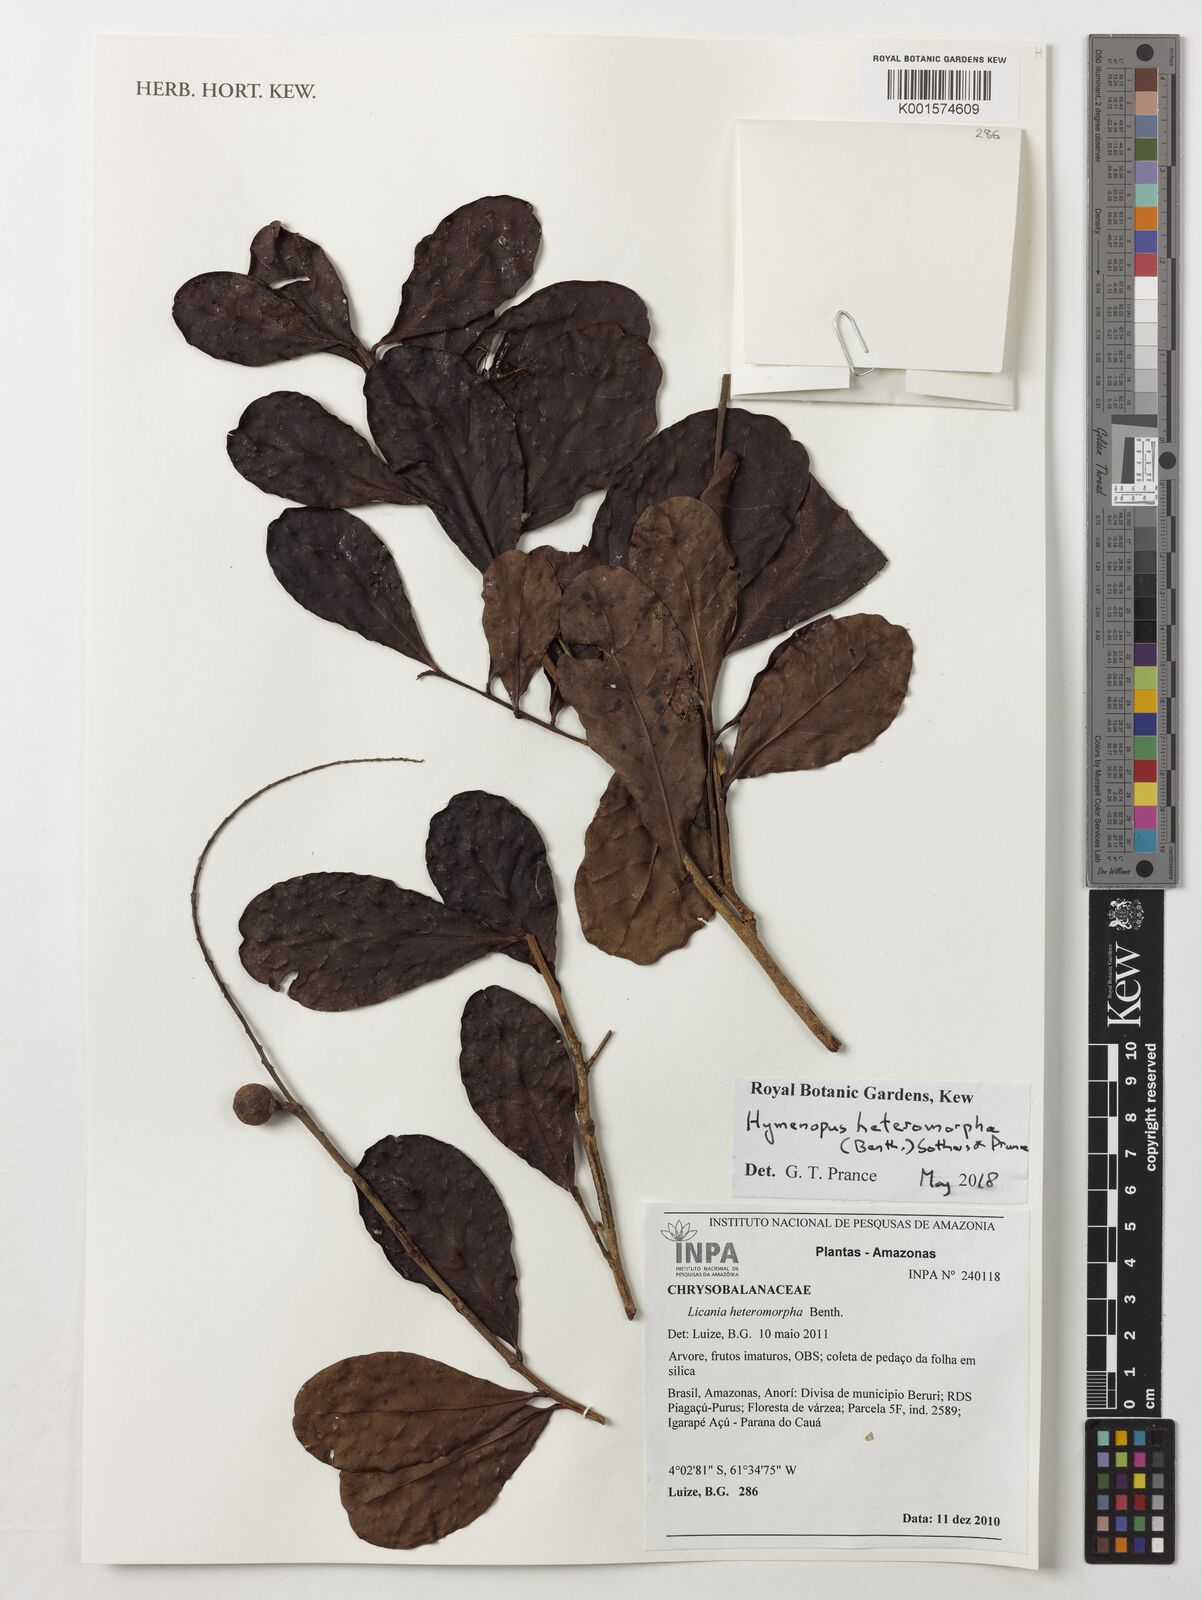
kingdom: Plantae
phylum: Tracheophyta
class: Magnoliopsida
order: Malpighiales
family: Chrysobalanaceae
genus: Hymenopus
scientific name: Hymenopus heteromorphus
